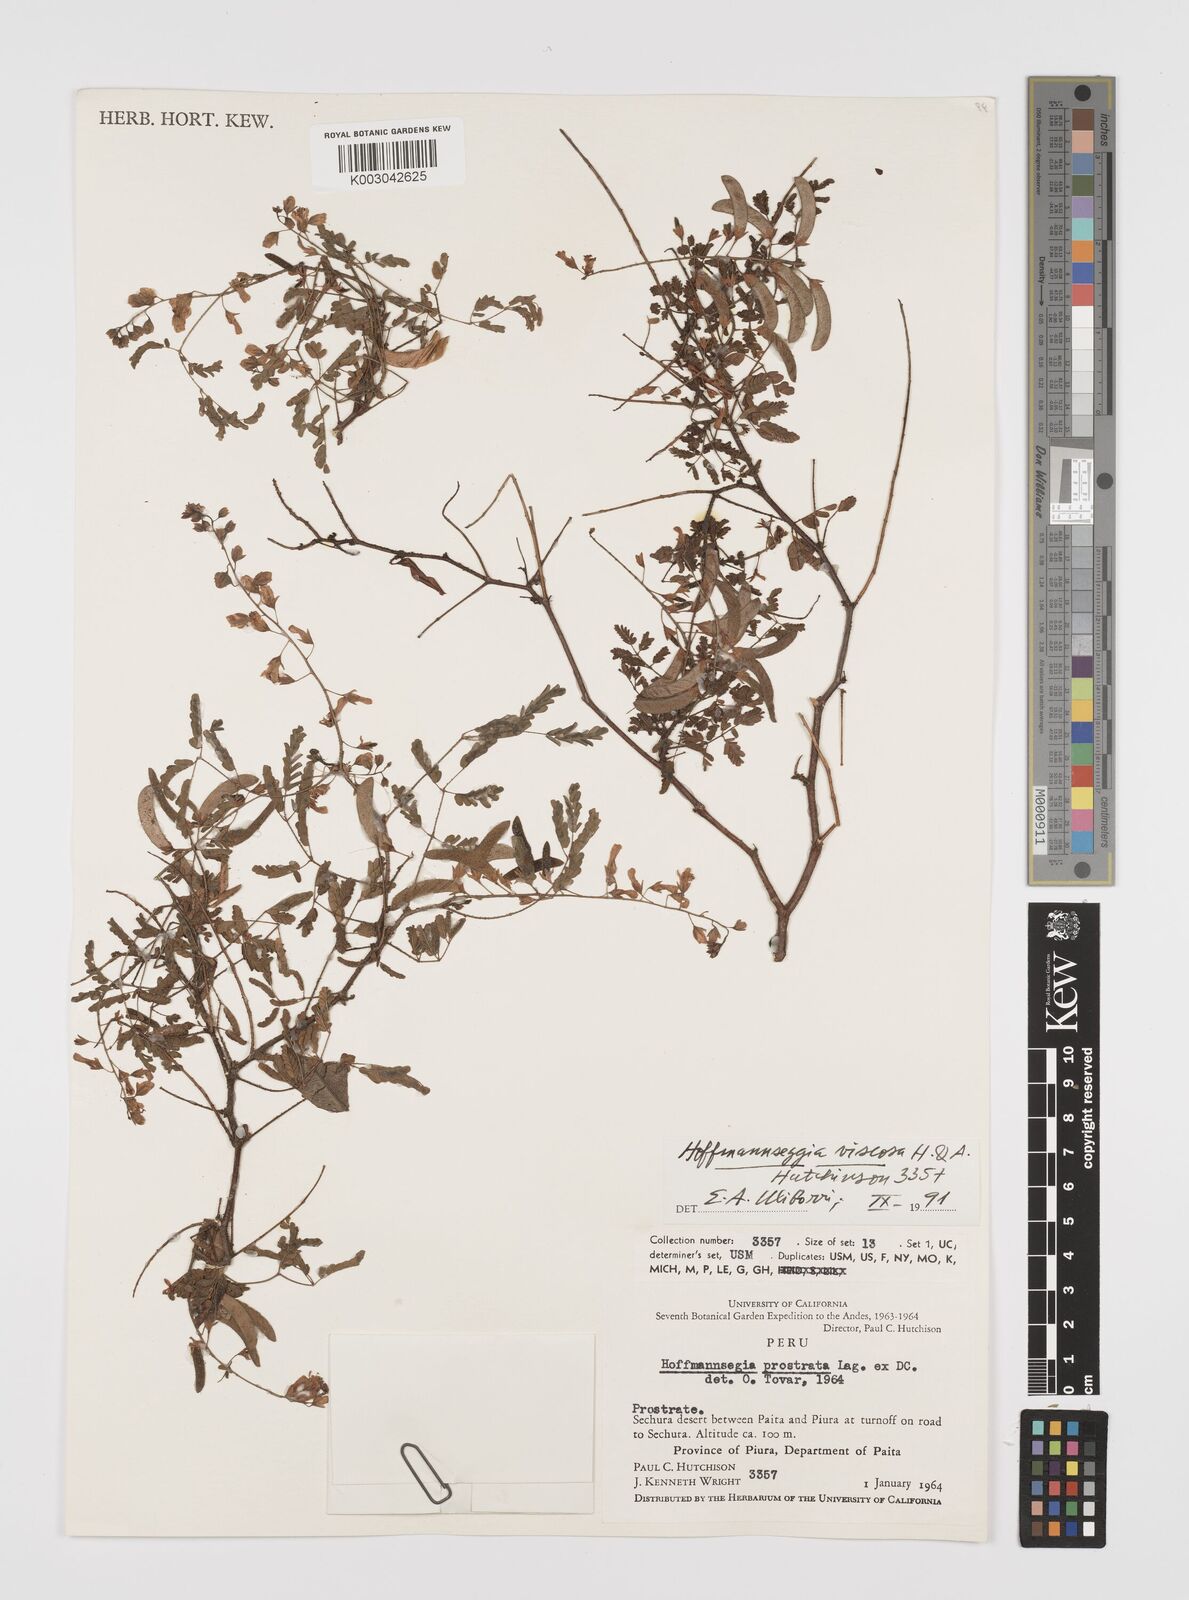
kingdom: Plantae
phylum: Tracheophyta
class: Magnoliopsida
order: Fabales
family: Fabaceae
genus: Hoffmannseggia
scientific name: Hoffmannseggia viscosa
